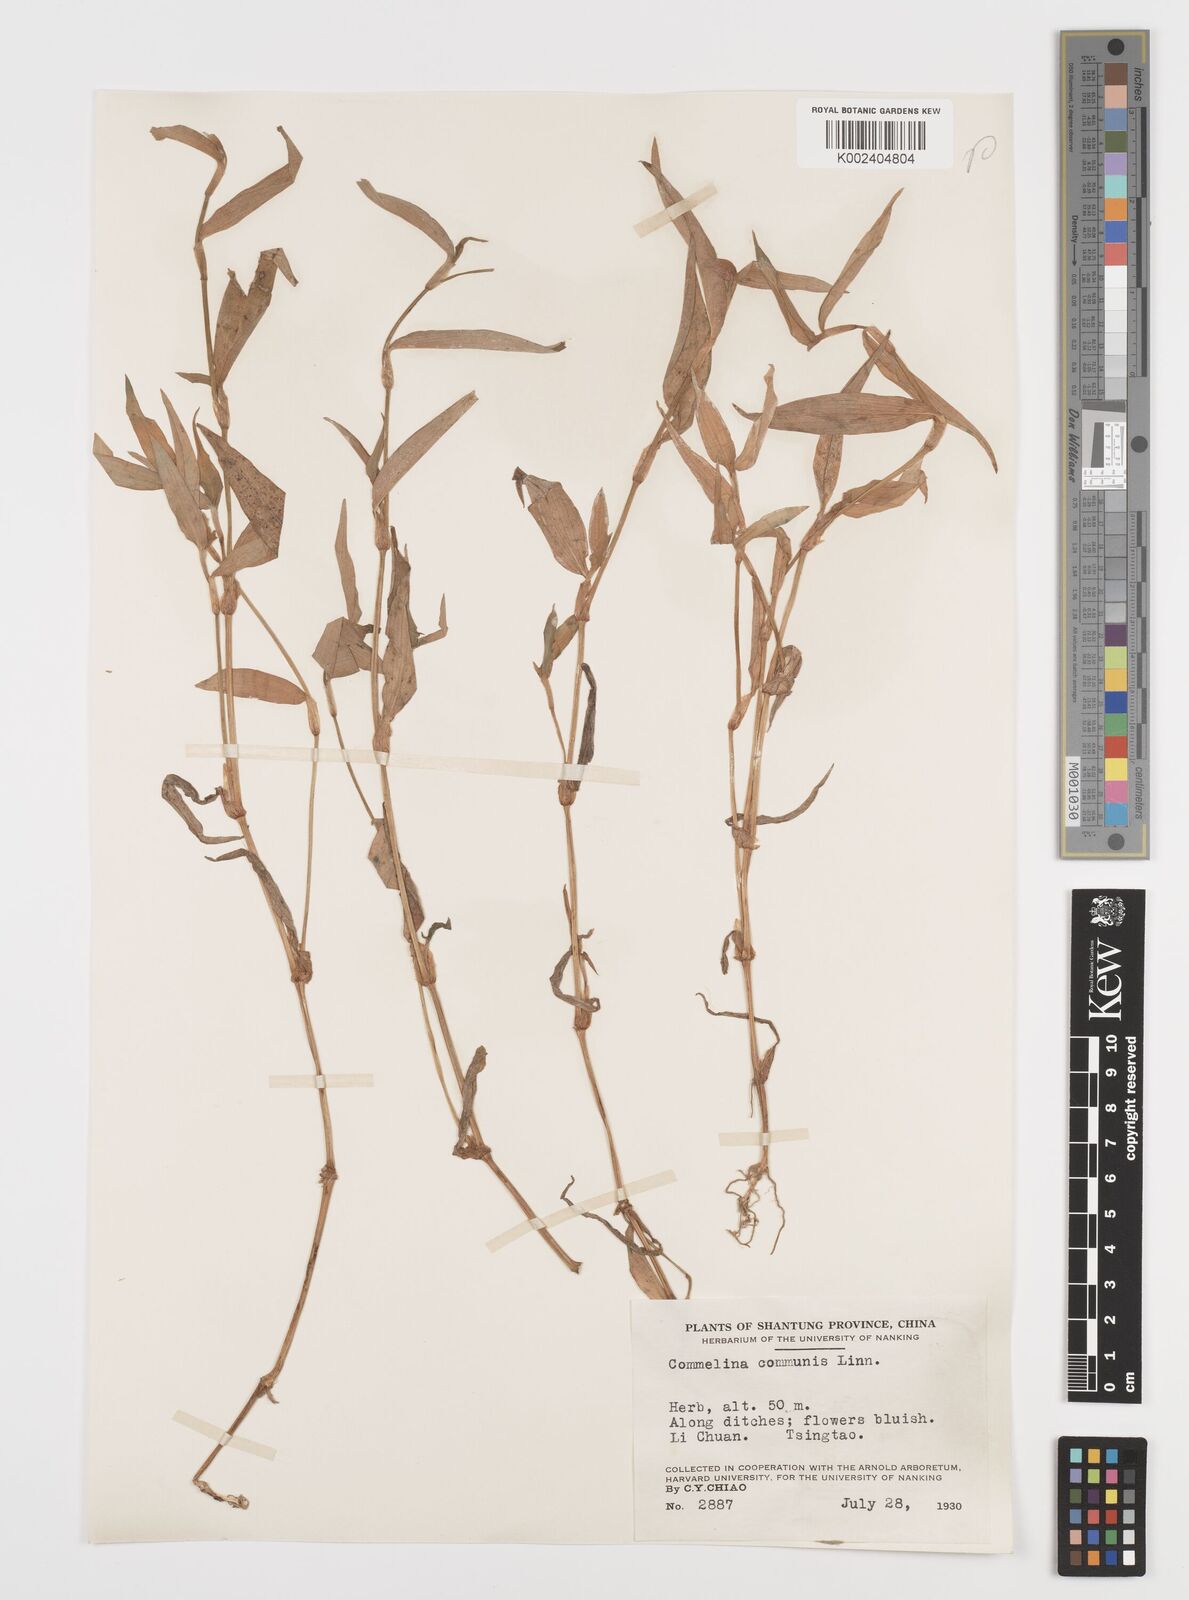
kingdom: Plantae
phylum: Tracheophyta
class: Liliopsida
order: Commelinales
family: Commelinaceae
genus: Commelina
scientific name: Commelina communis
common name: Asiatic dayflower
